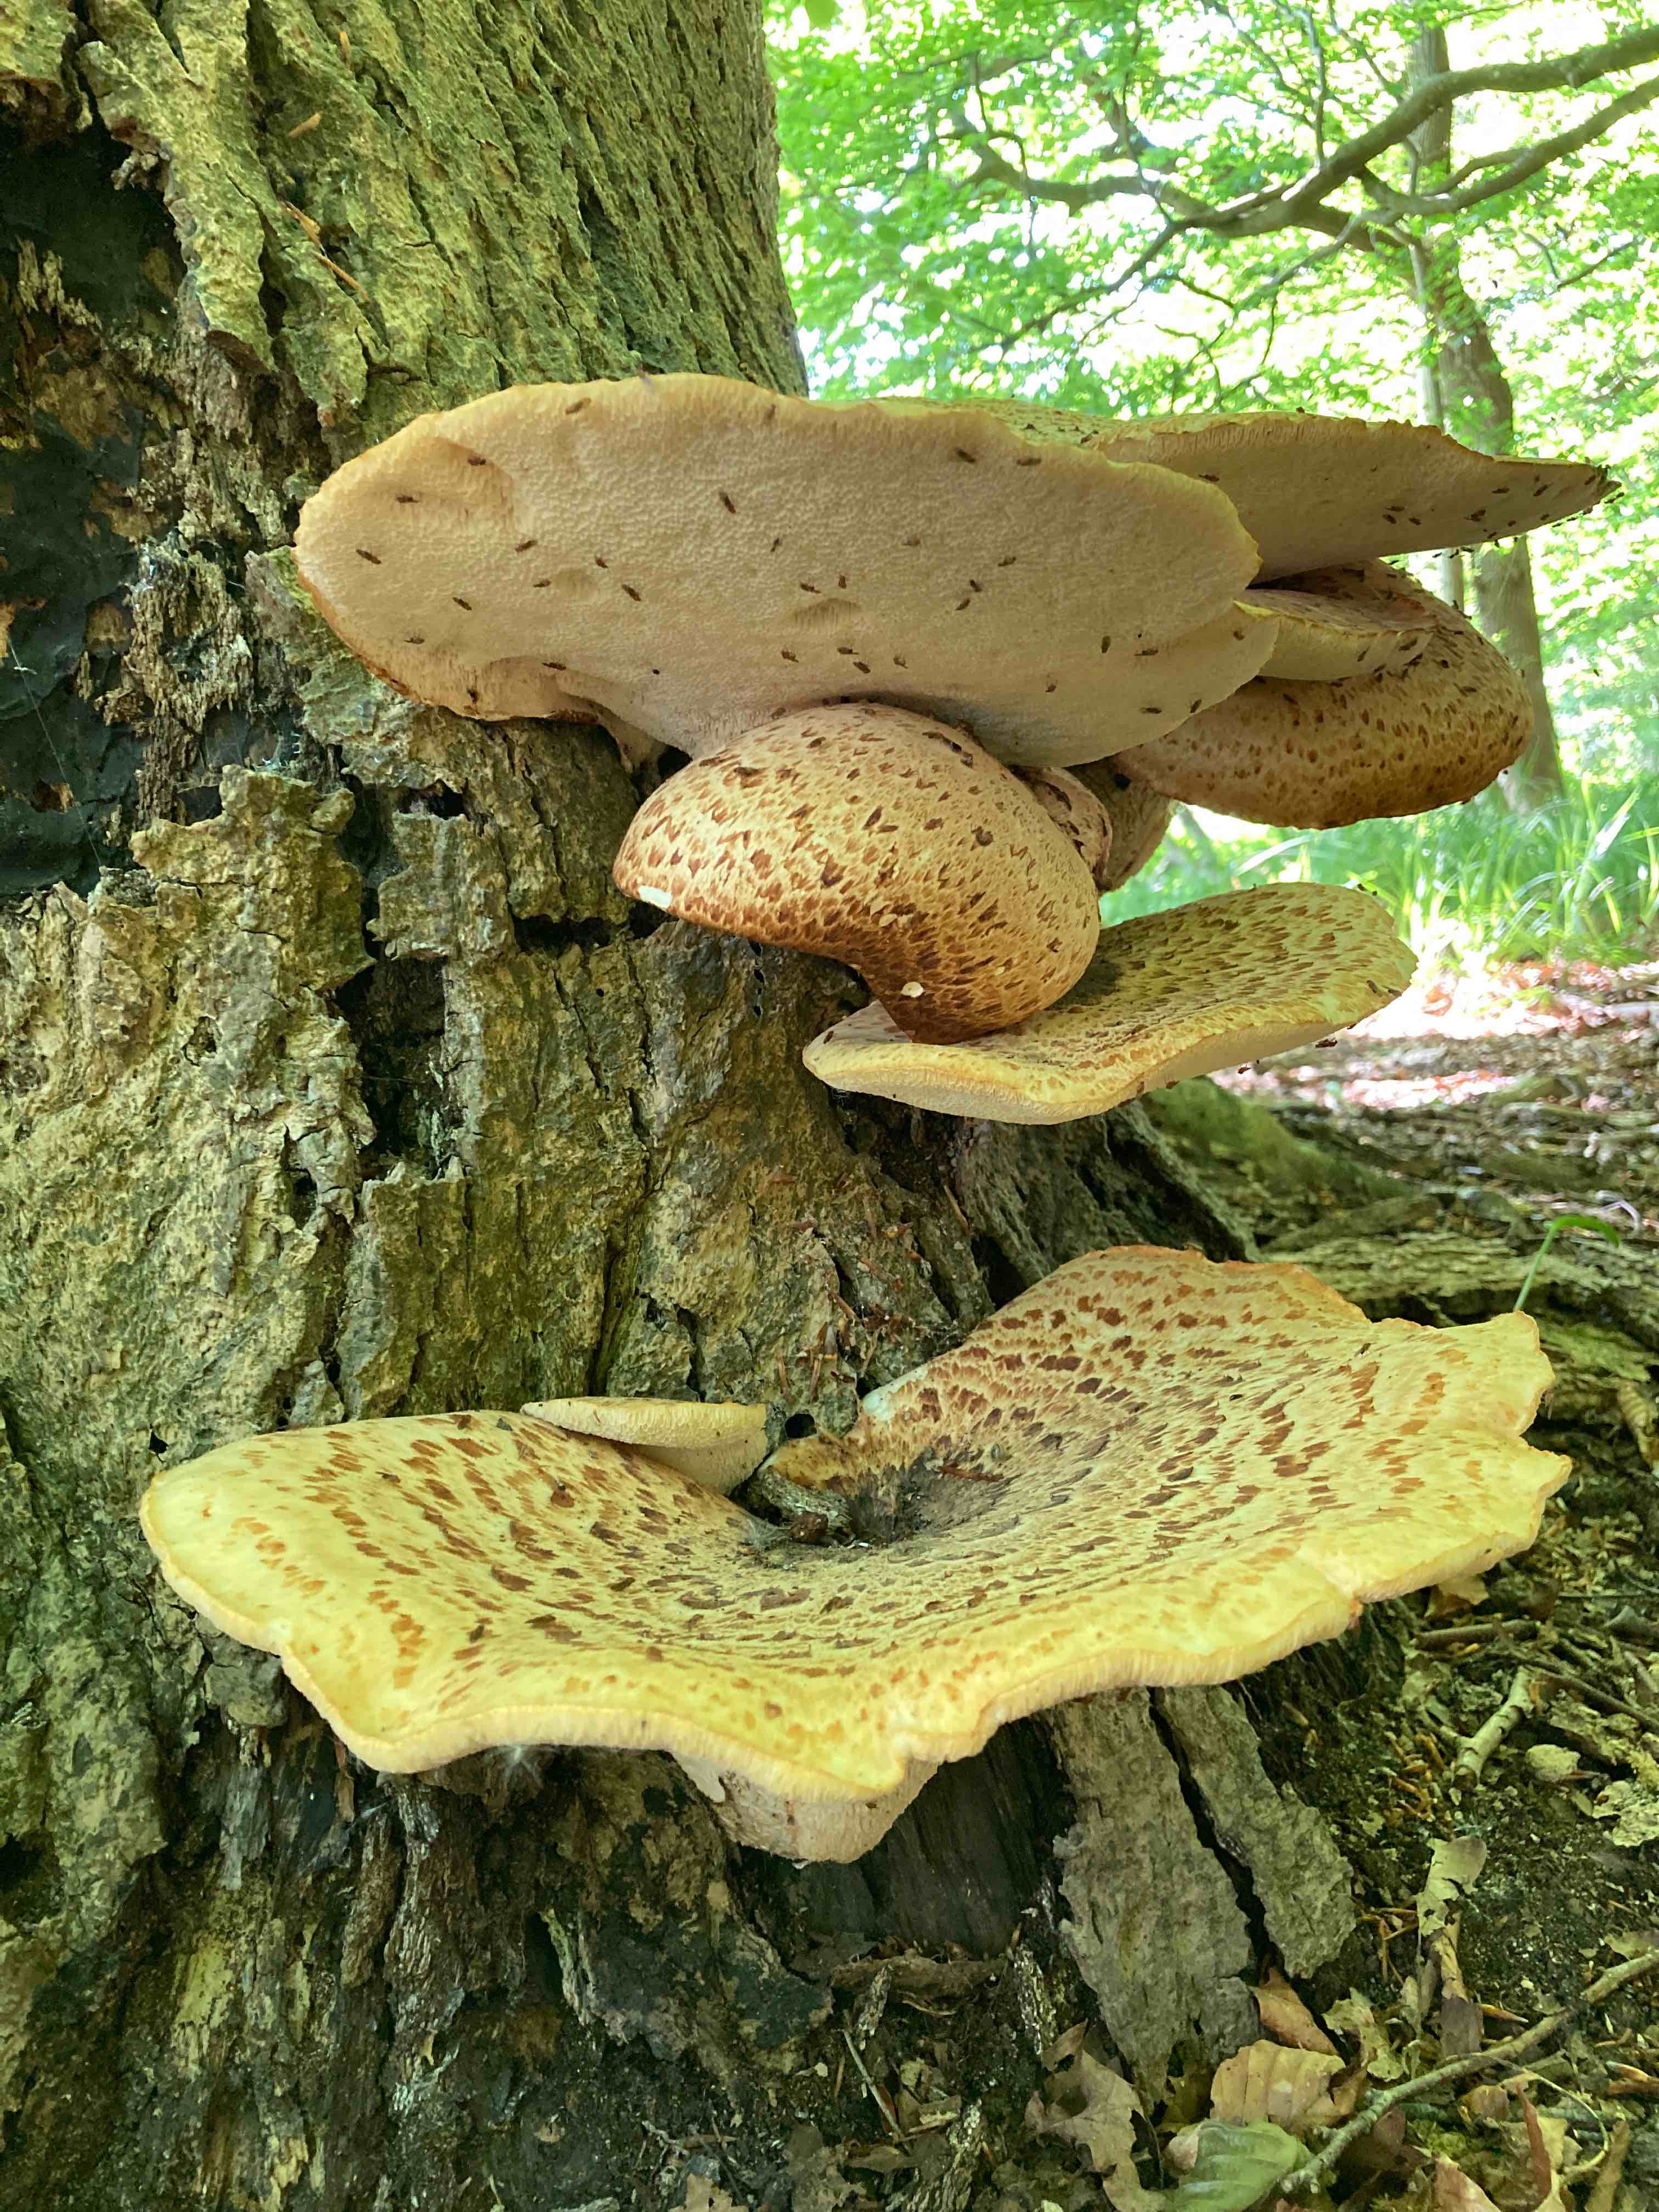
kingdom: Fungi
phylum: Basidiomycota
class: Agaricomycetes
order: Polyporales
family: Polyporaceae
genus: Cerioporus
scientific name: Cerioporus squamosus
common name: skællet stilkporesvamp
